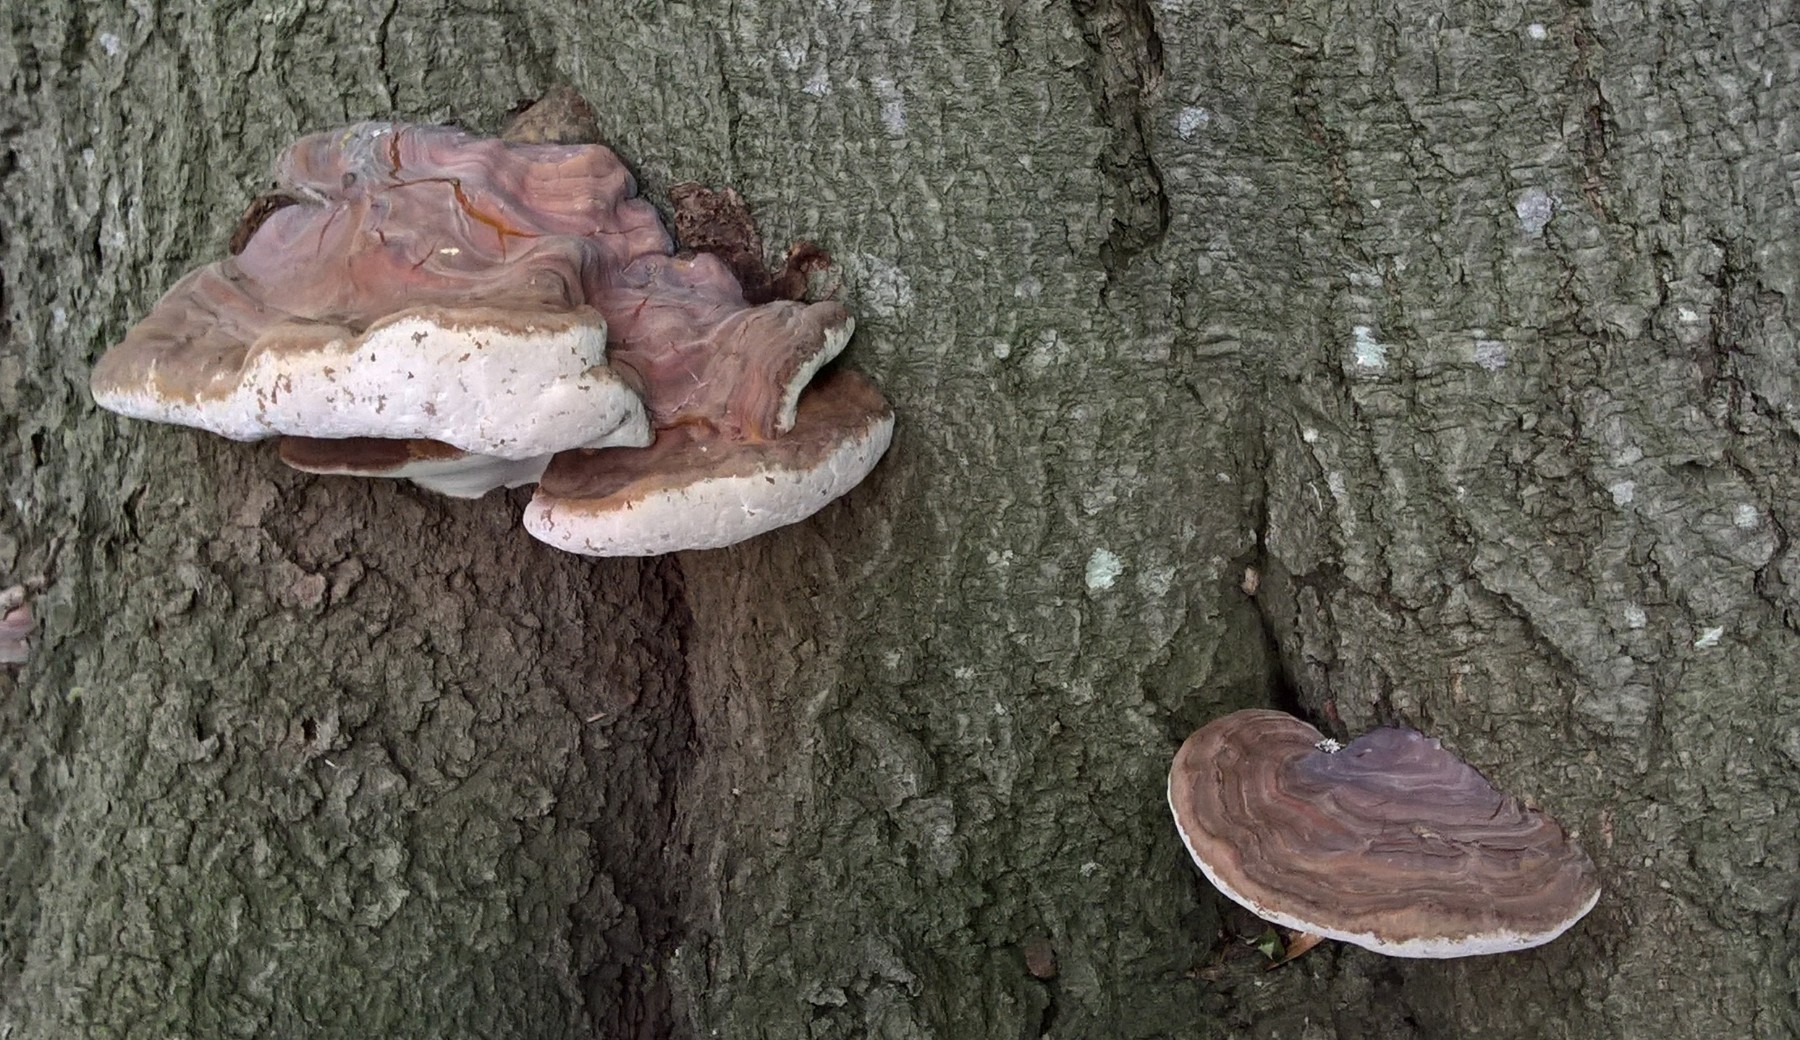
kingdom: Fungi
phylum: Basidiomycota
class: Agaricomycetes
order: Polyporales
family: Polyporaceae
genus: Ganoderma
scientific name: Ganoderma pfeifferi
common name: kobberrød lakporesvamp
